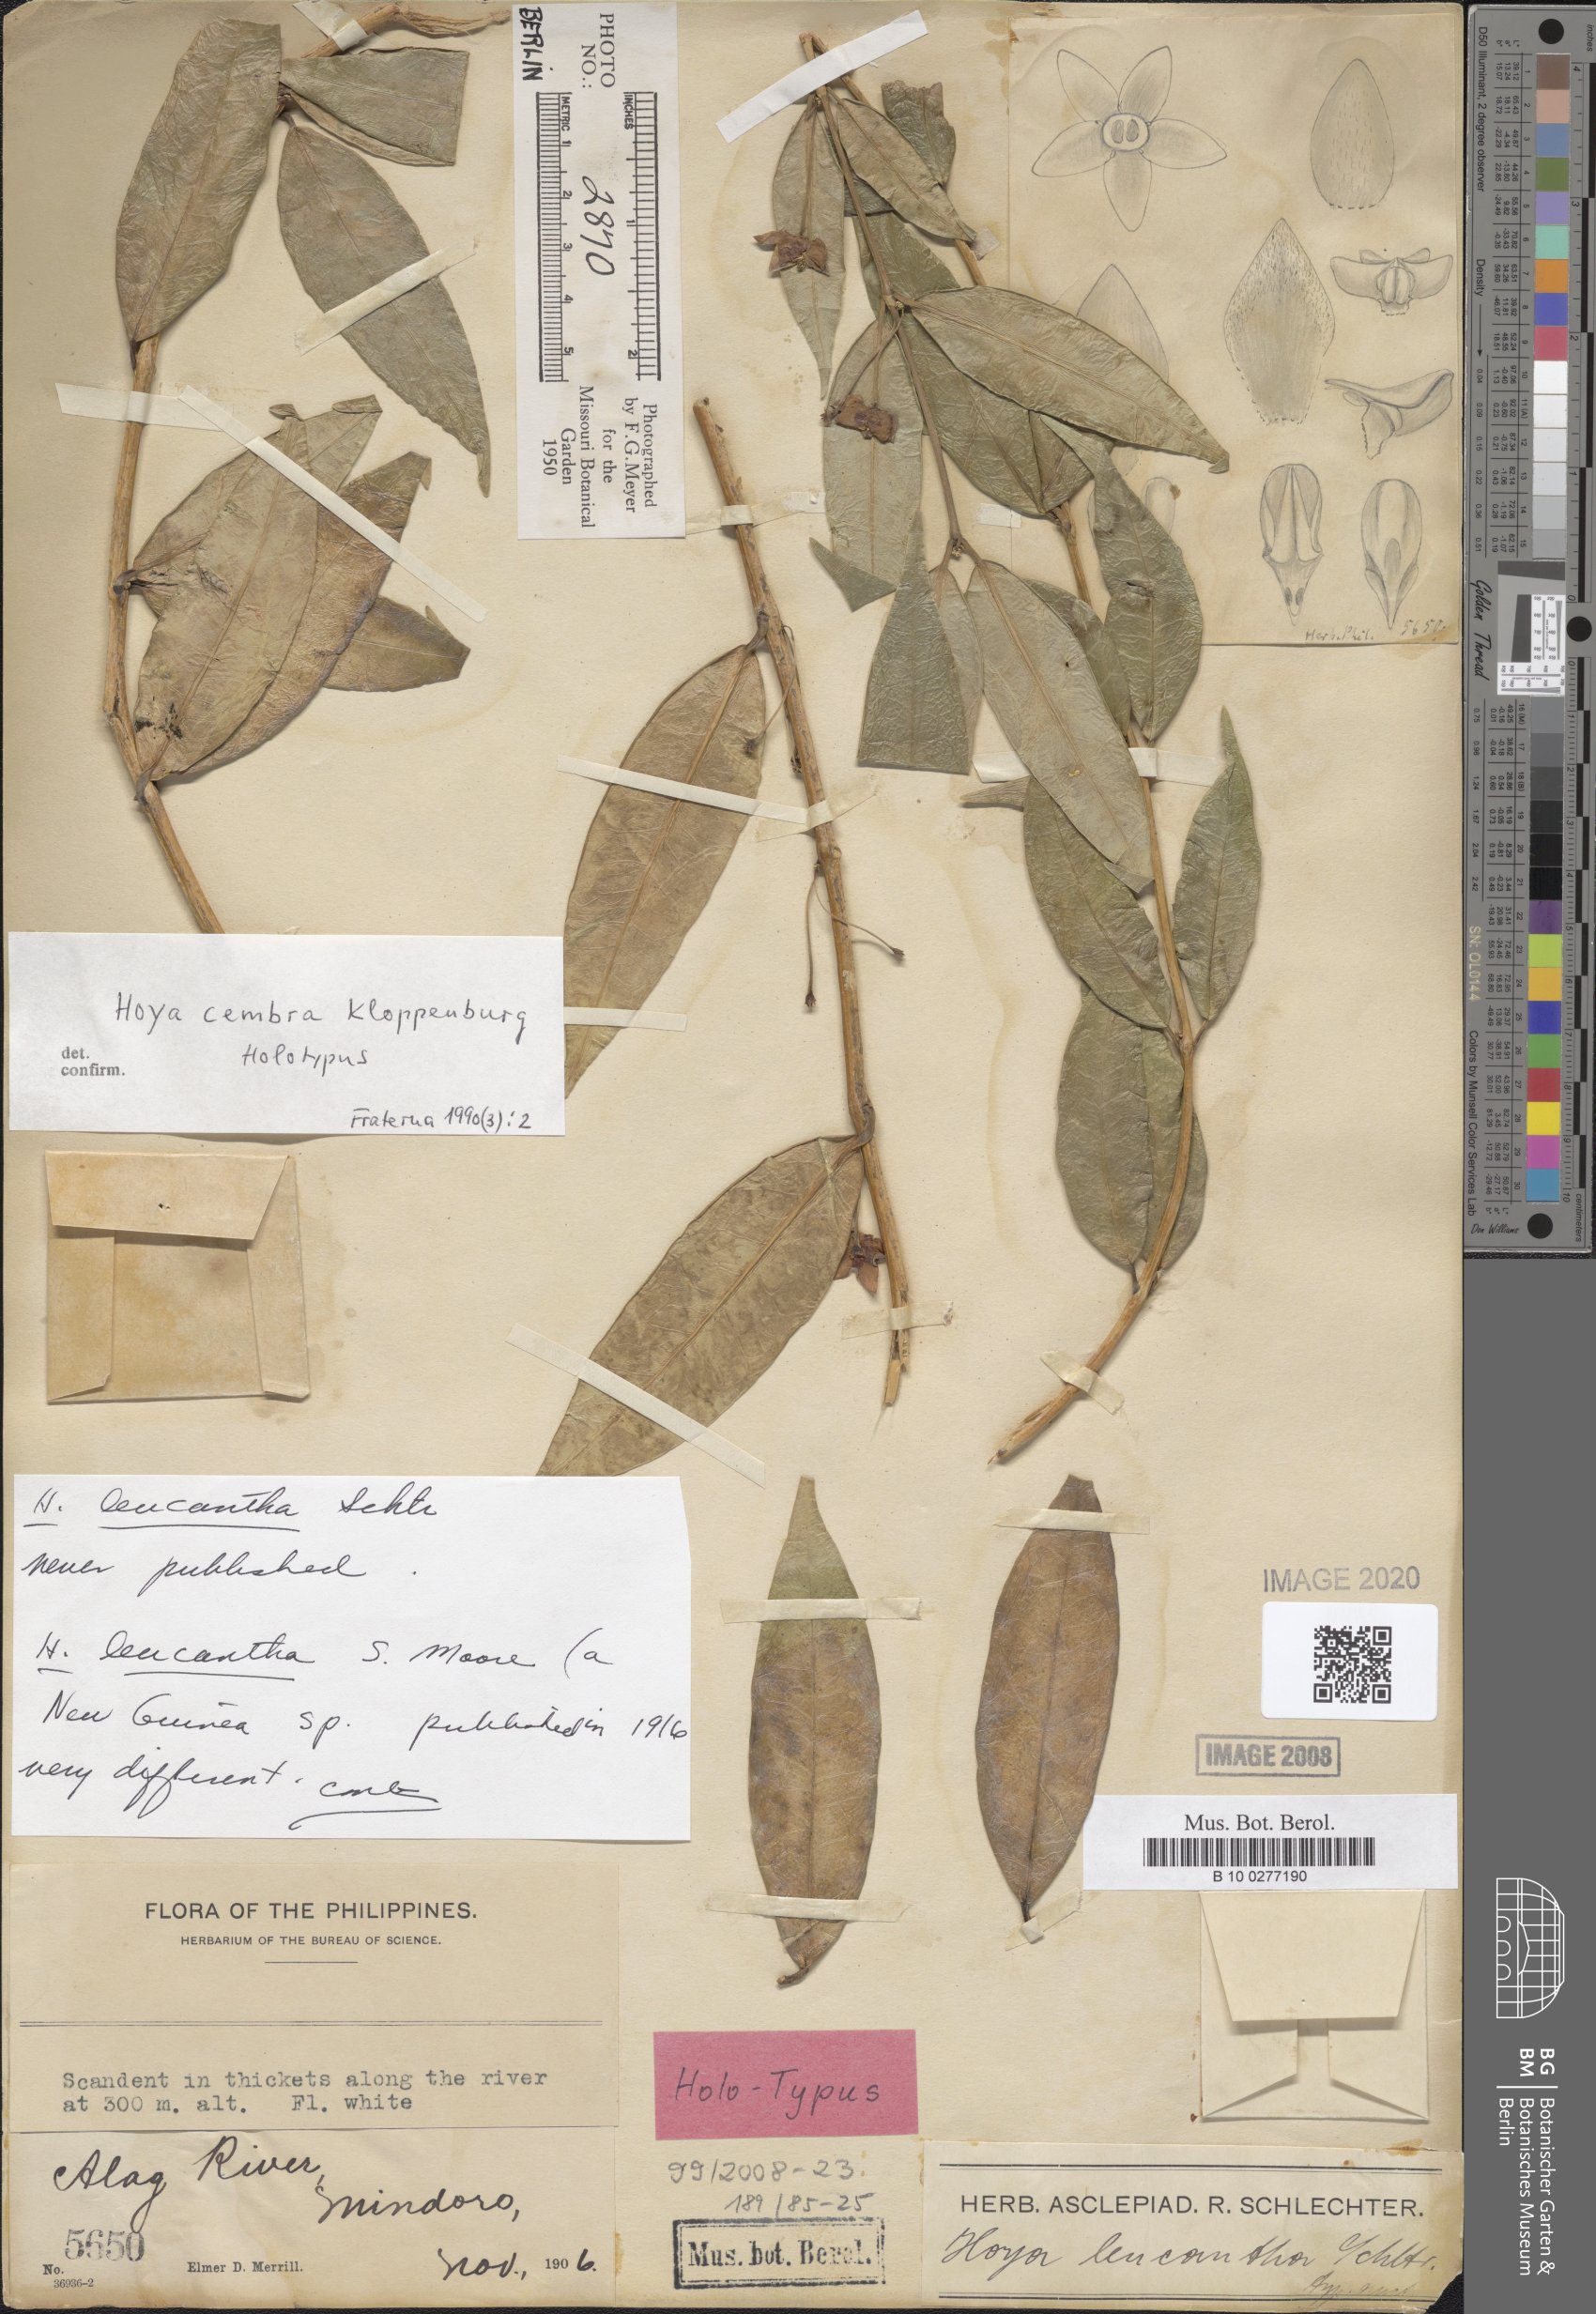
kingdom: Plantae
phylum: Tracheophyta
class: Magnoliopsida
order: Gentianales
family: Apocynaceae
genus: Hoya
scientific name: Hoya leucantha
